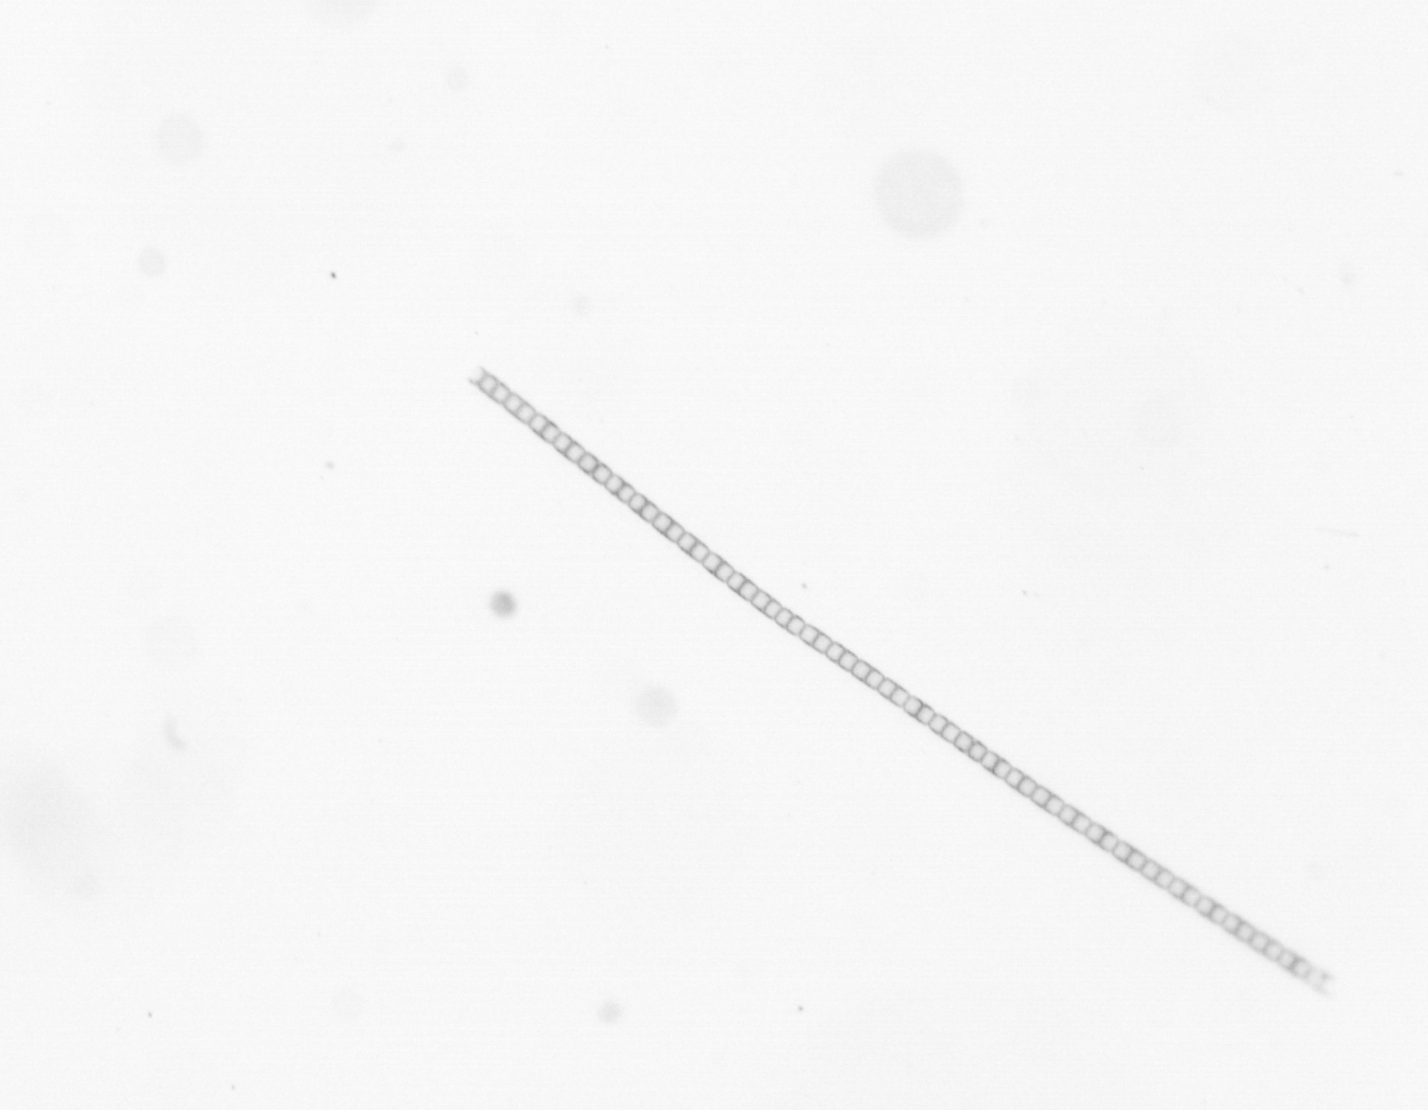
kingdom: Chromista
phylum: Ochrophyta
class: Bacillariophyceae
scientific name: Bacillariophyceae
